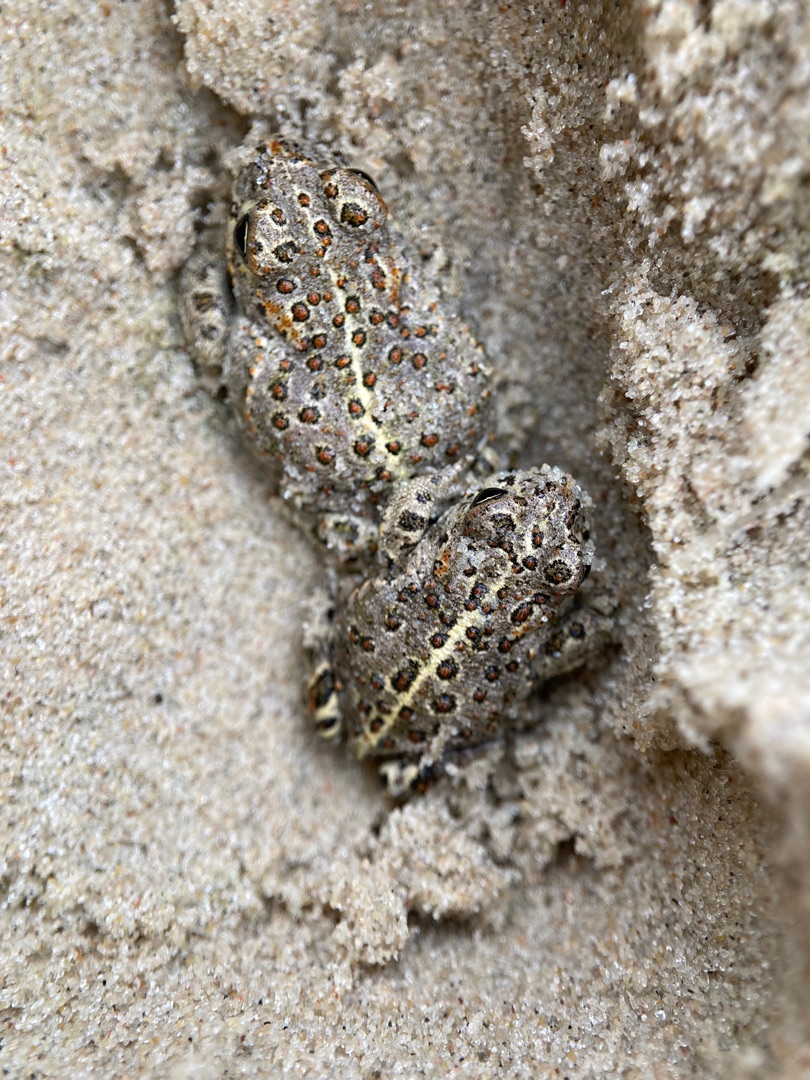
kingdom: Animalia
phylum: Chordata
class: Amphibia
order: Anura
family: Bufonidae
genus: Epidalea
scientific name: Epidalea calamita
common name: Strandtudse
